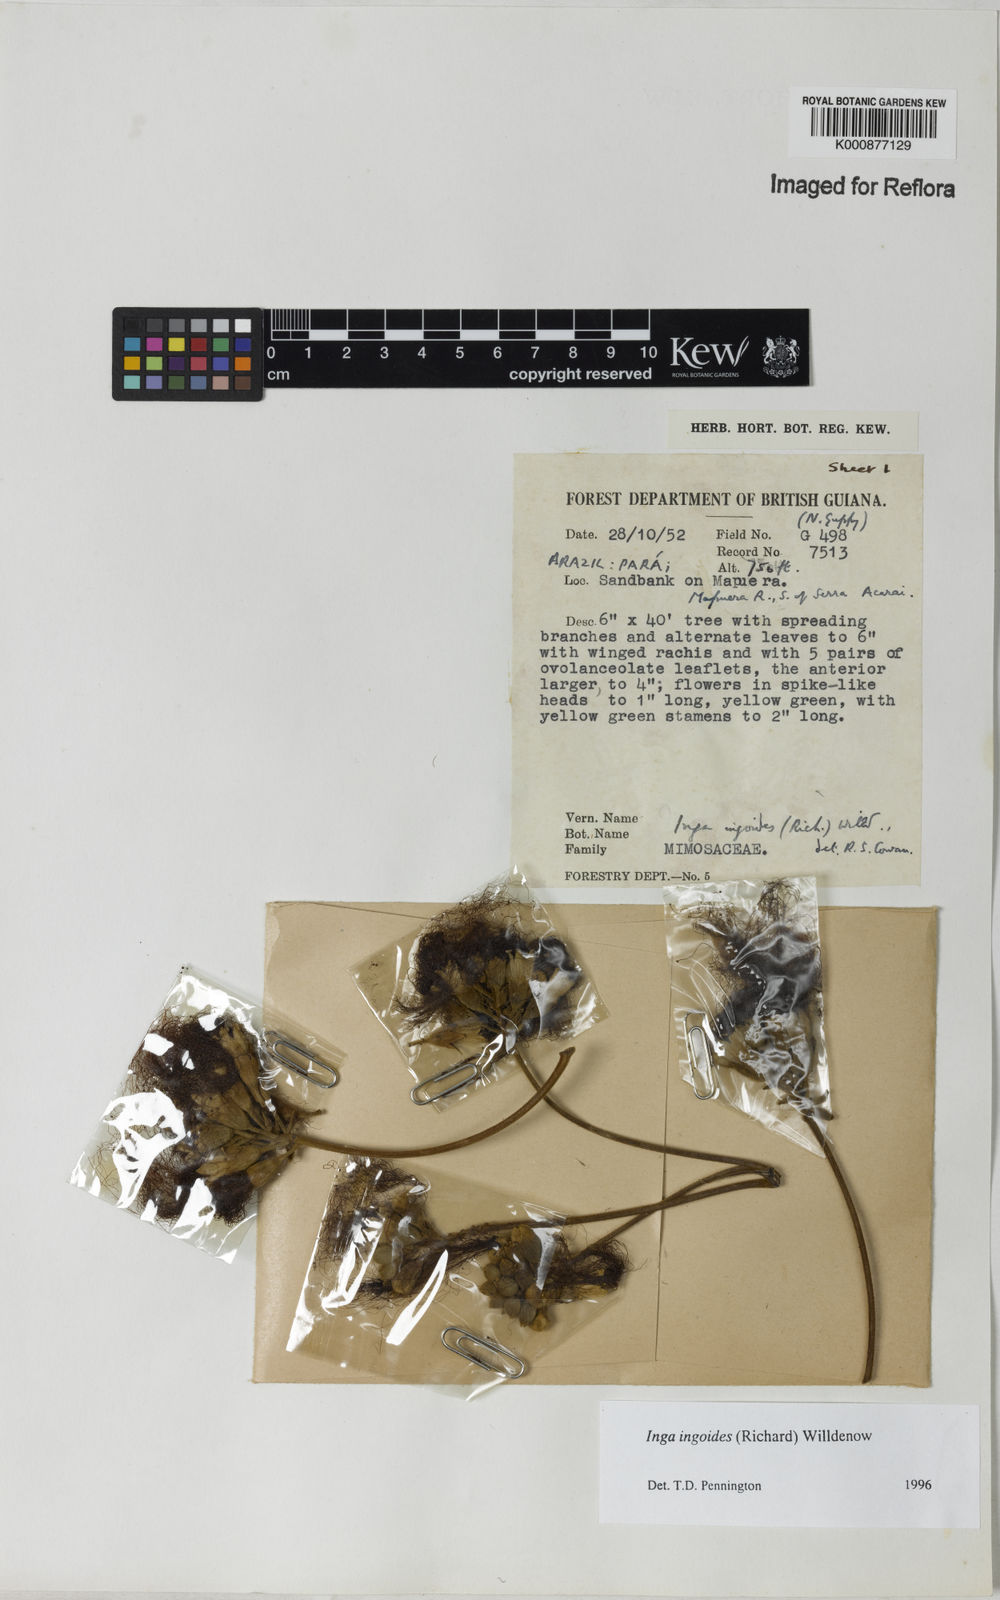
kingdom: Plantae
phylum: Tracheophyta
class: Magnoliopsida
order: Fabales
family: Fabaceae
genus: Inga
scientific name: Inga ingoides
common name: Spanish ash
